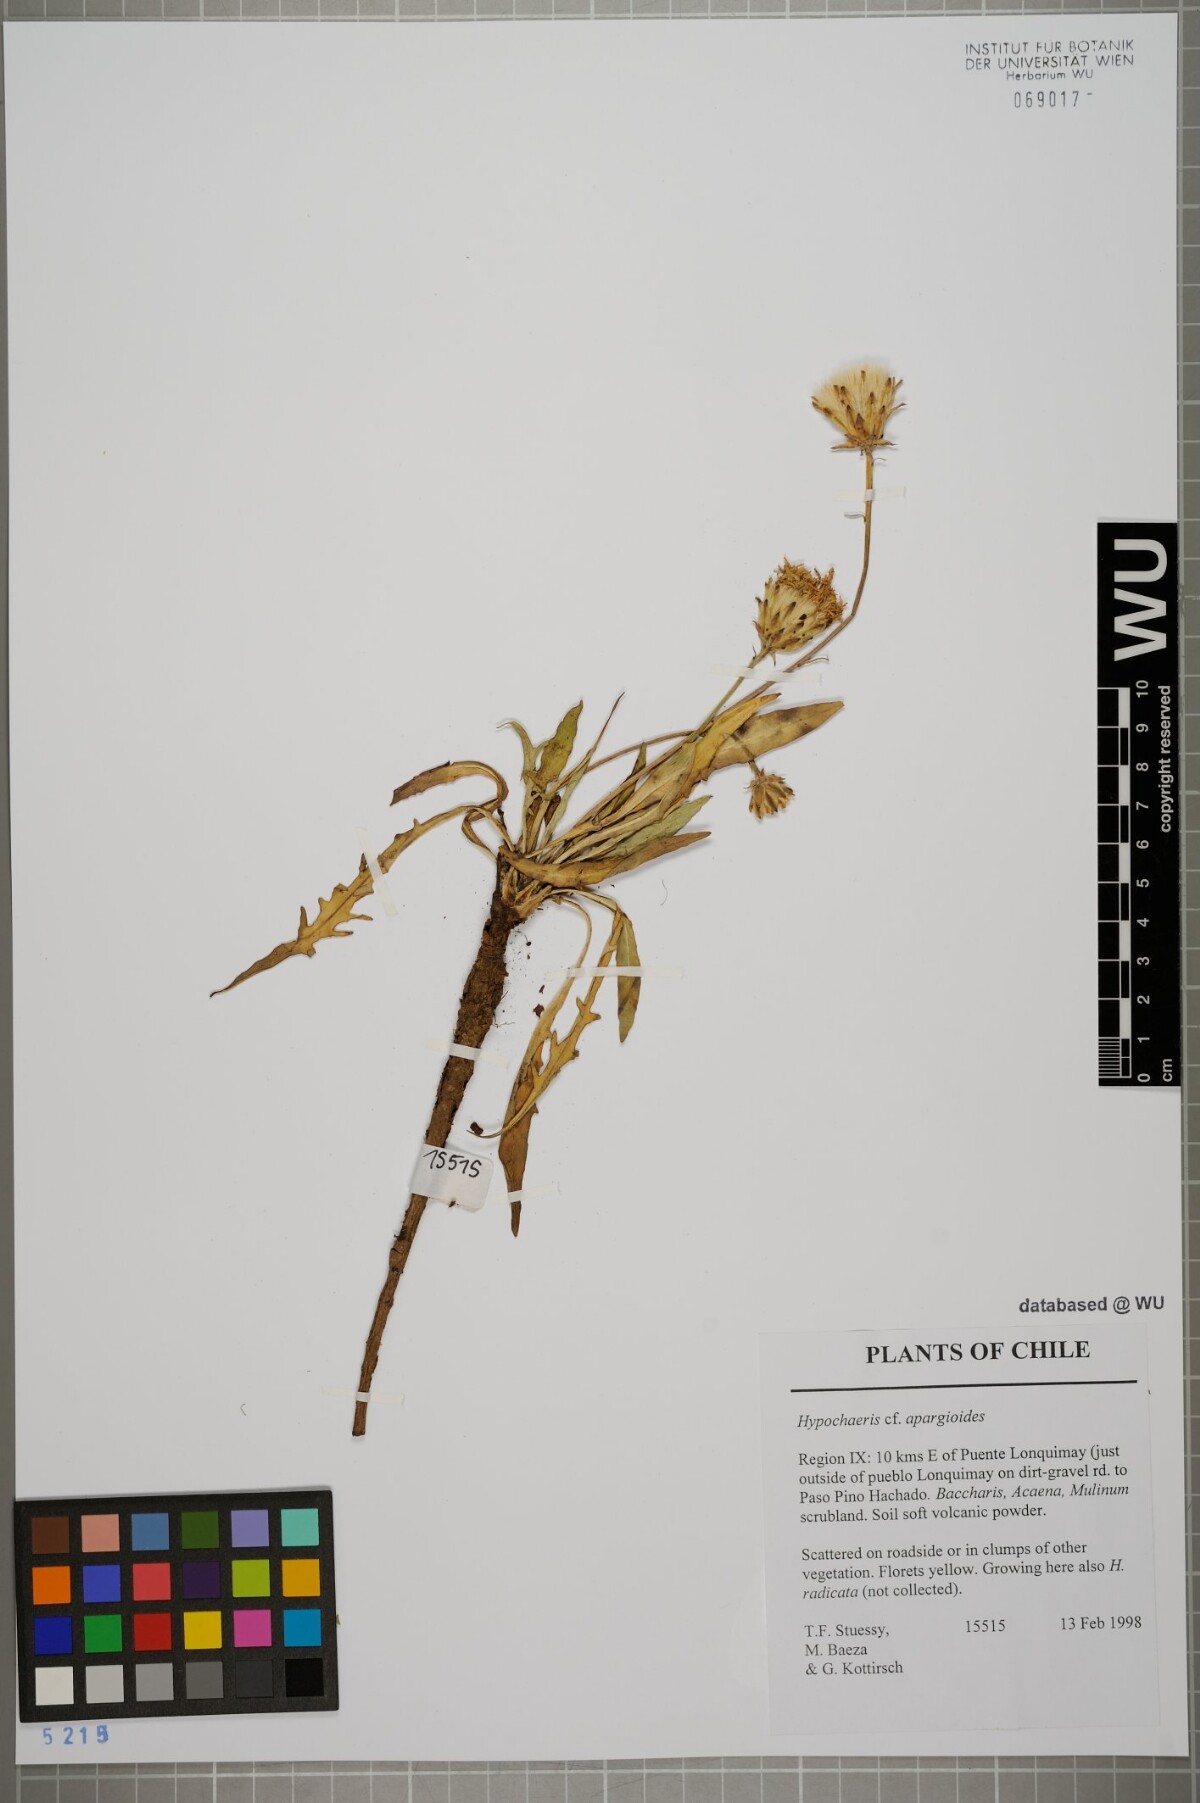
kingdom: Plantae
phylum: Tracheophyta
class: Magnoliopsida
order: Asterales
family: Asteraceae
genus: Hypochaeris
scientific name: Hypochaeris apargioides
